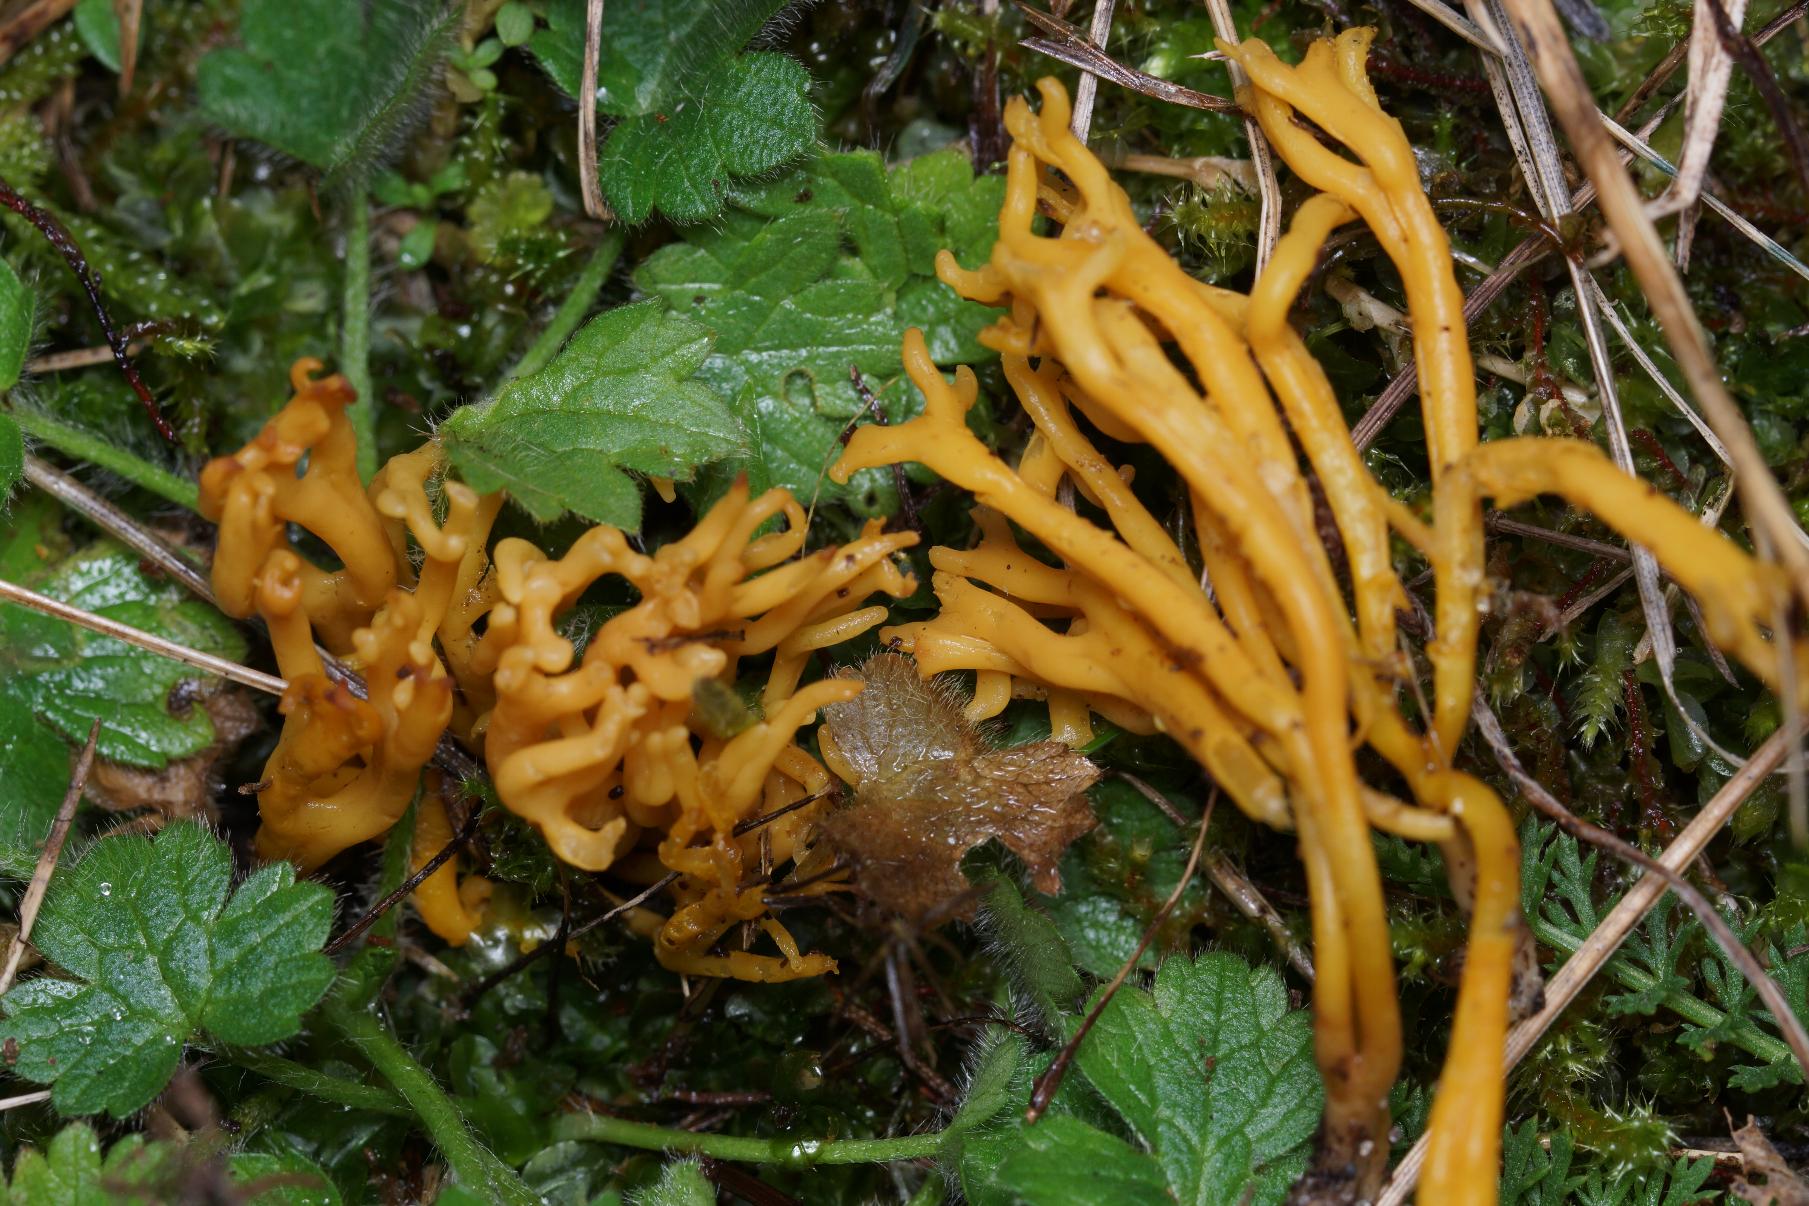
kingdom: Fungi
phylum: Basidiomycota
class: Agaricomycetes
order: Agaricales
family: Clavariaceae
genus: Clavulinopsis
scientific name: Clavulinopsis corniculata
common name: Eng-køllesvamp
